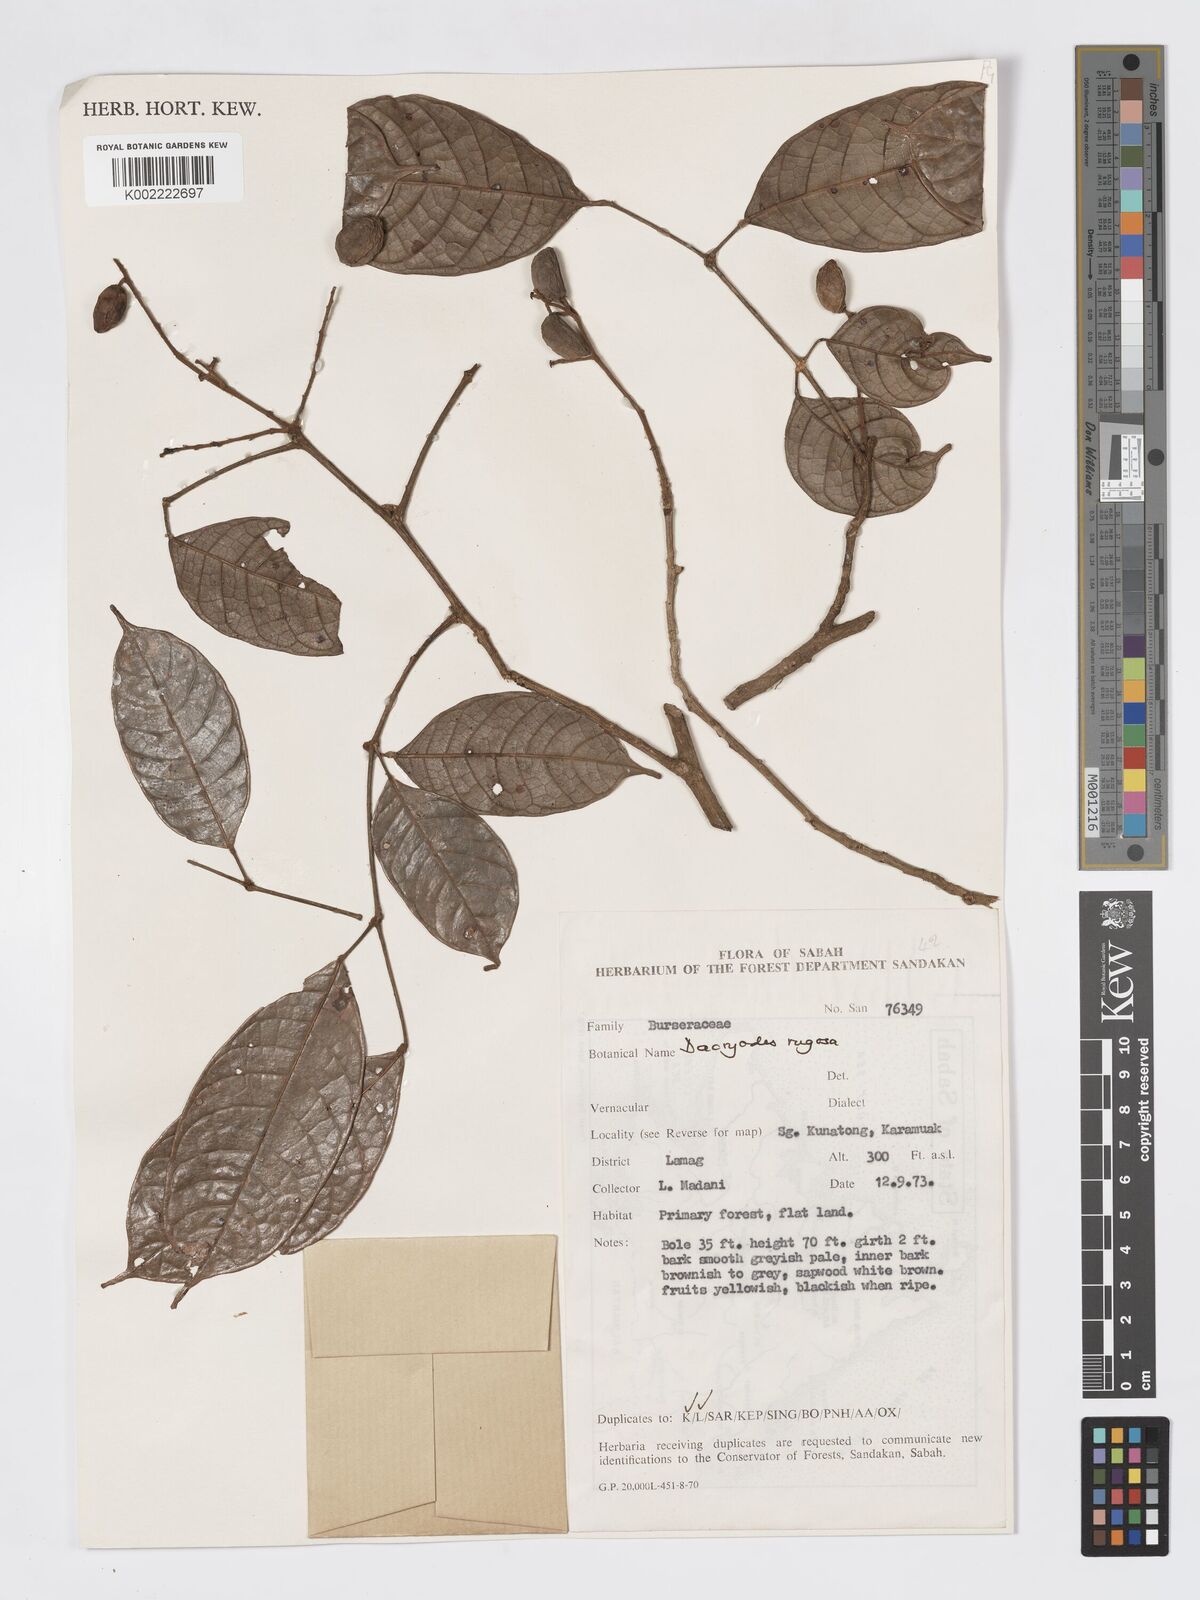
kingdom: Plantae
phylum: Tracheophyta
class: Magnoliopsida
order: Sapindales
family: Burseraceae
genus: Dacryodes
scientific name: Dacryodes rugosa
